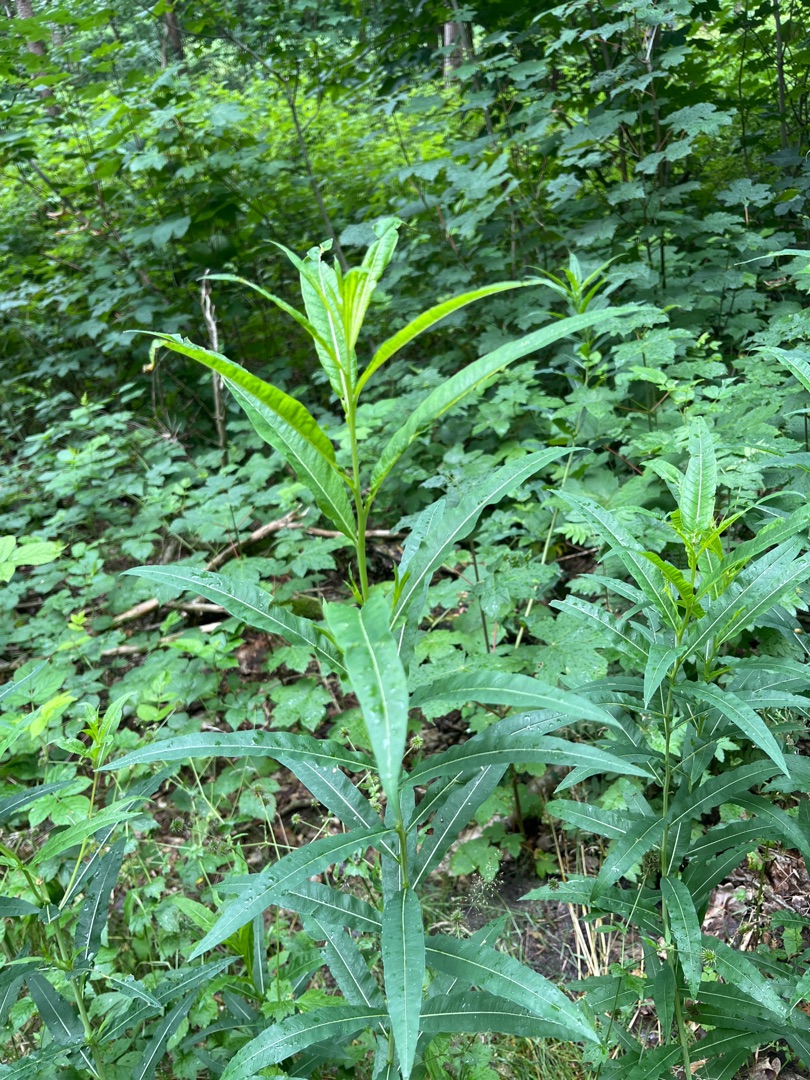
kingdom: Plantae
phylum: Tracheophyta
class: Magnoliopsida
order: Myrtales
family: Onagraceae
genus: Chamaenerion
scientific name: Chamaenerion angustifolium
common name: Gederams
